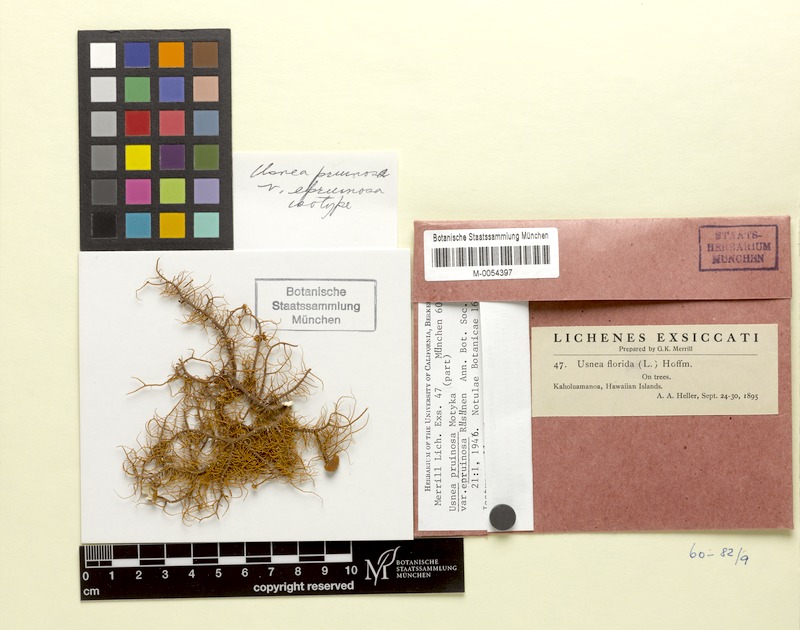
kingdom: Fungi
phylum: Ascomycota
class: Lecanoromycetes
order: Lecanorales
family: Parmeliaceae
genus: Usnea
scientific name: Usnea
